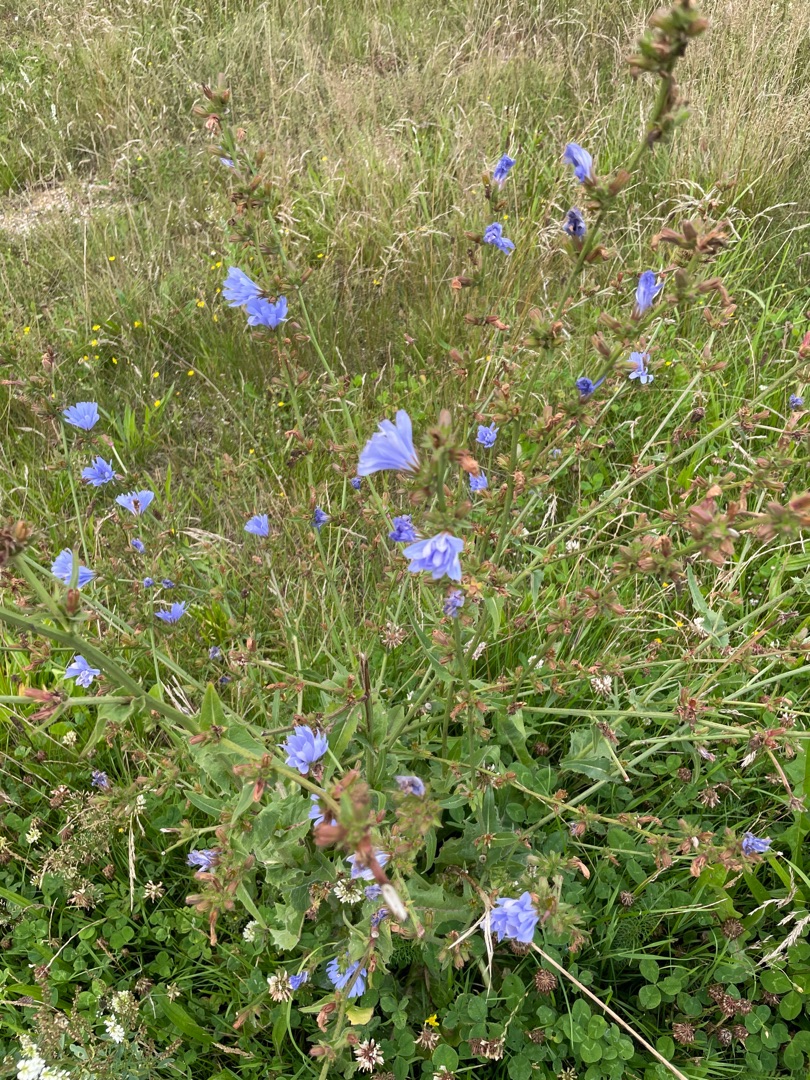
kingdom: Plantae
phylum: Tracheophyta
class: Magnoliopsida
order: Asterales
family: Asteraceae
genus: Cichorium
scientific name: Cichorium intybus
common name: Cikorie
